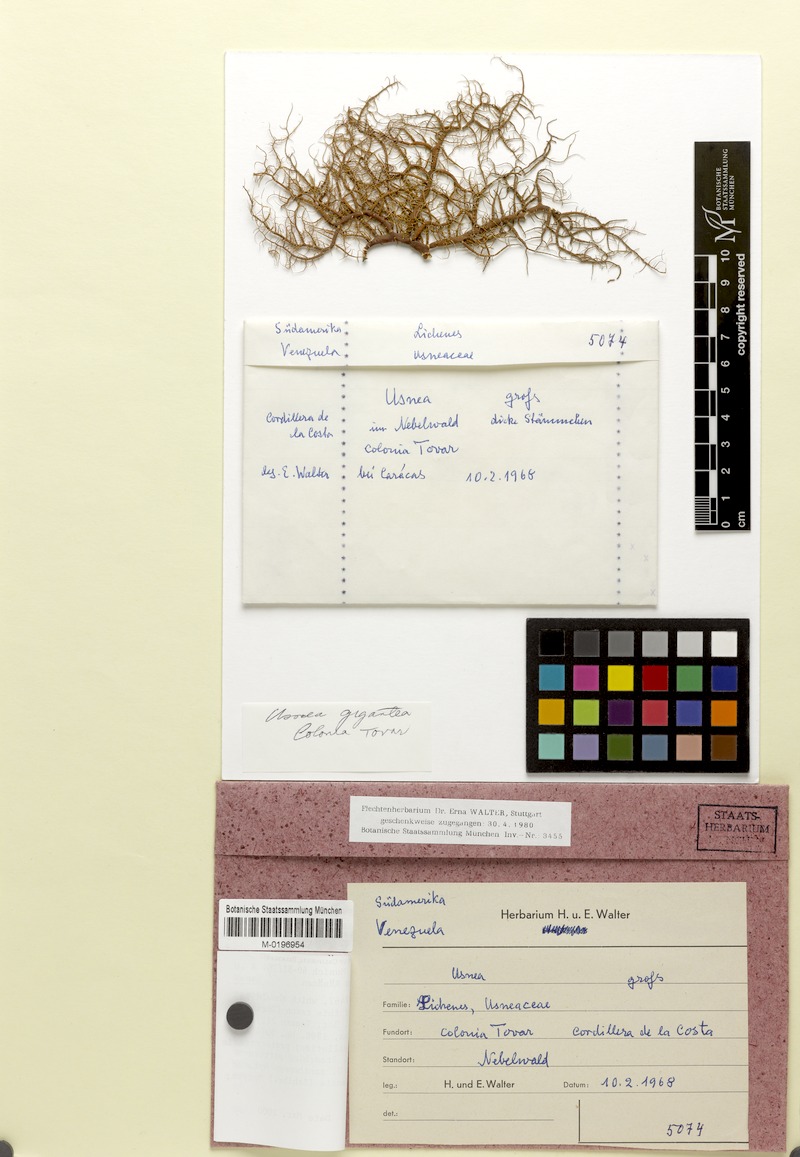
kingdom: Fungi
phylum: Ascomycota
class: Lecanoromycetes
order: Lecanorales
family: Parmeliaceae
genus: Usnea
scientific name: Usnea gigantea
